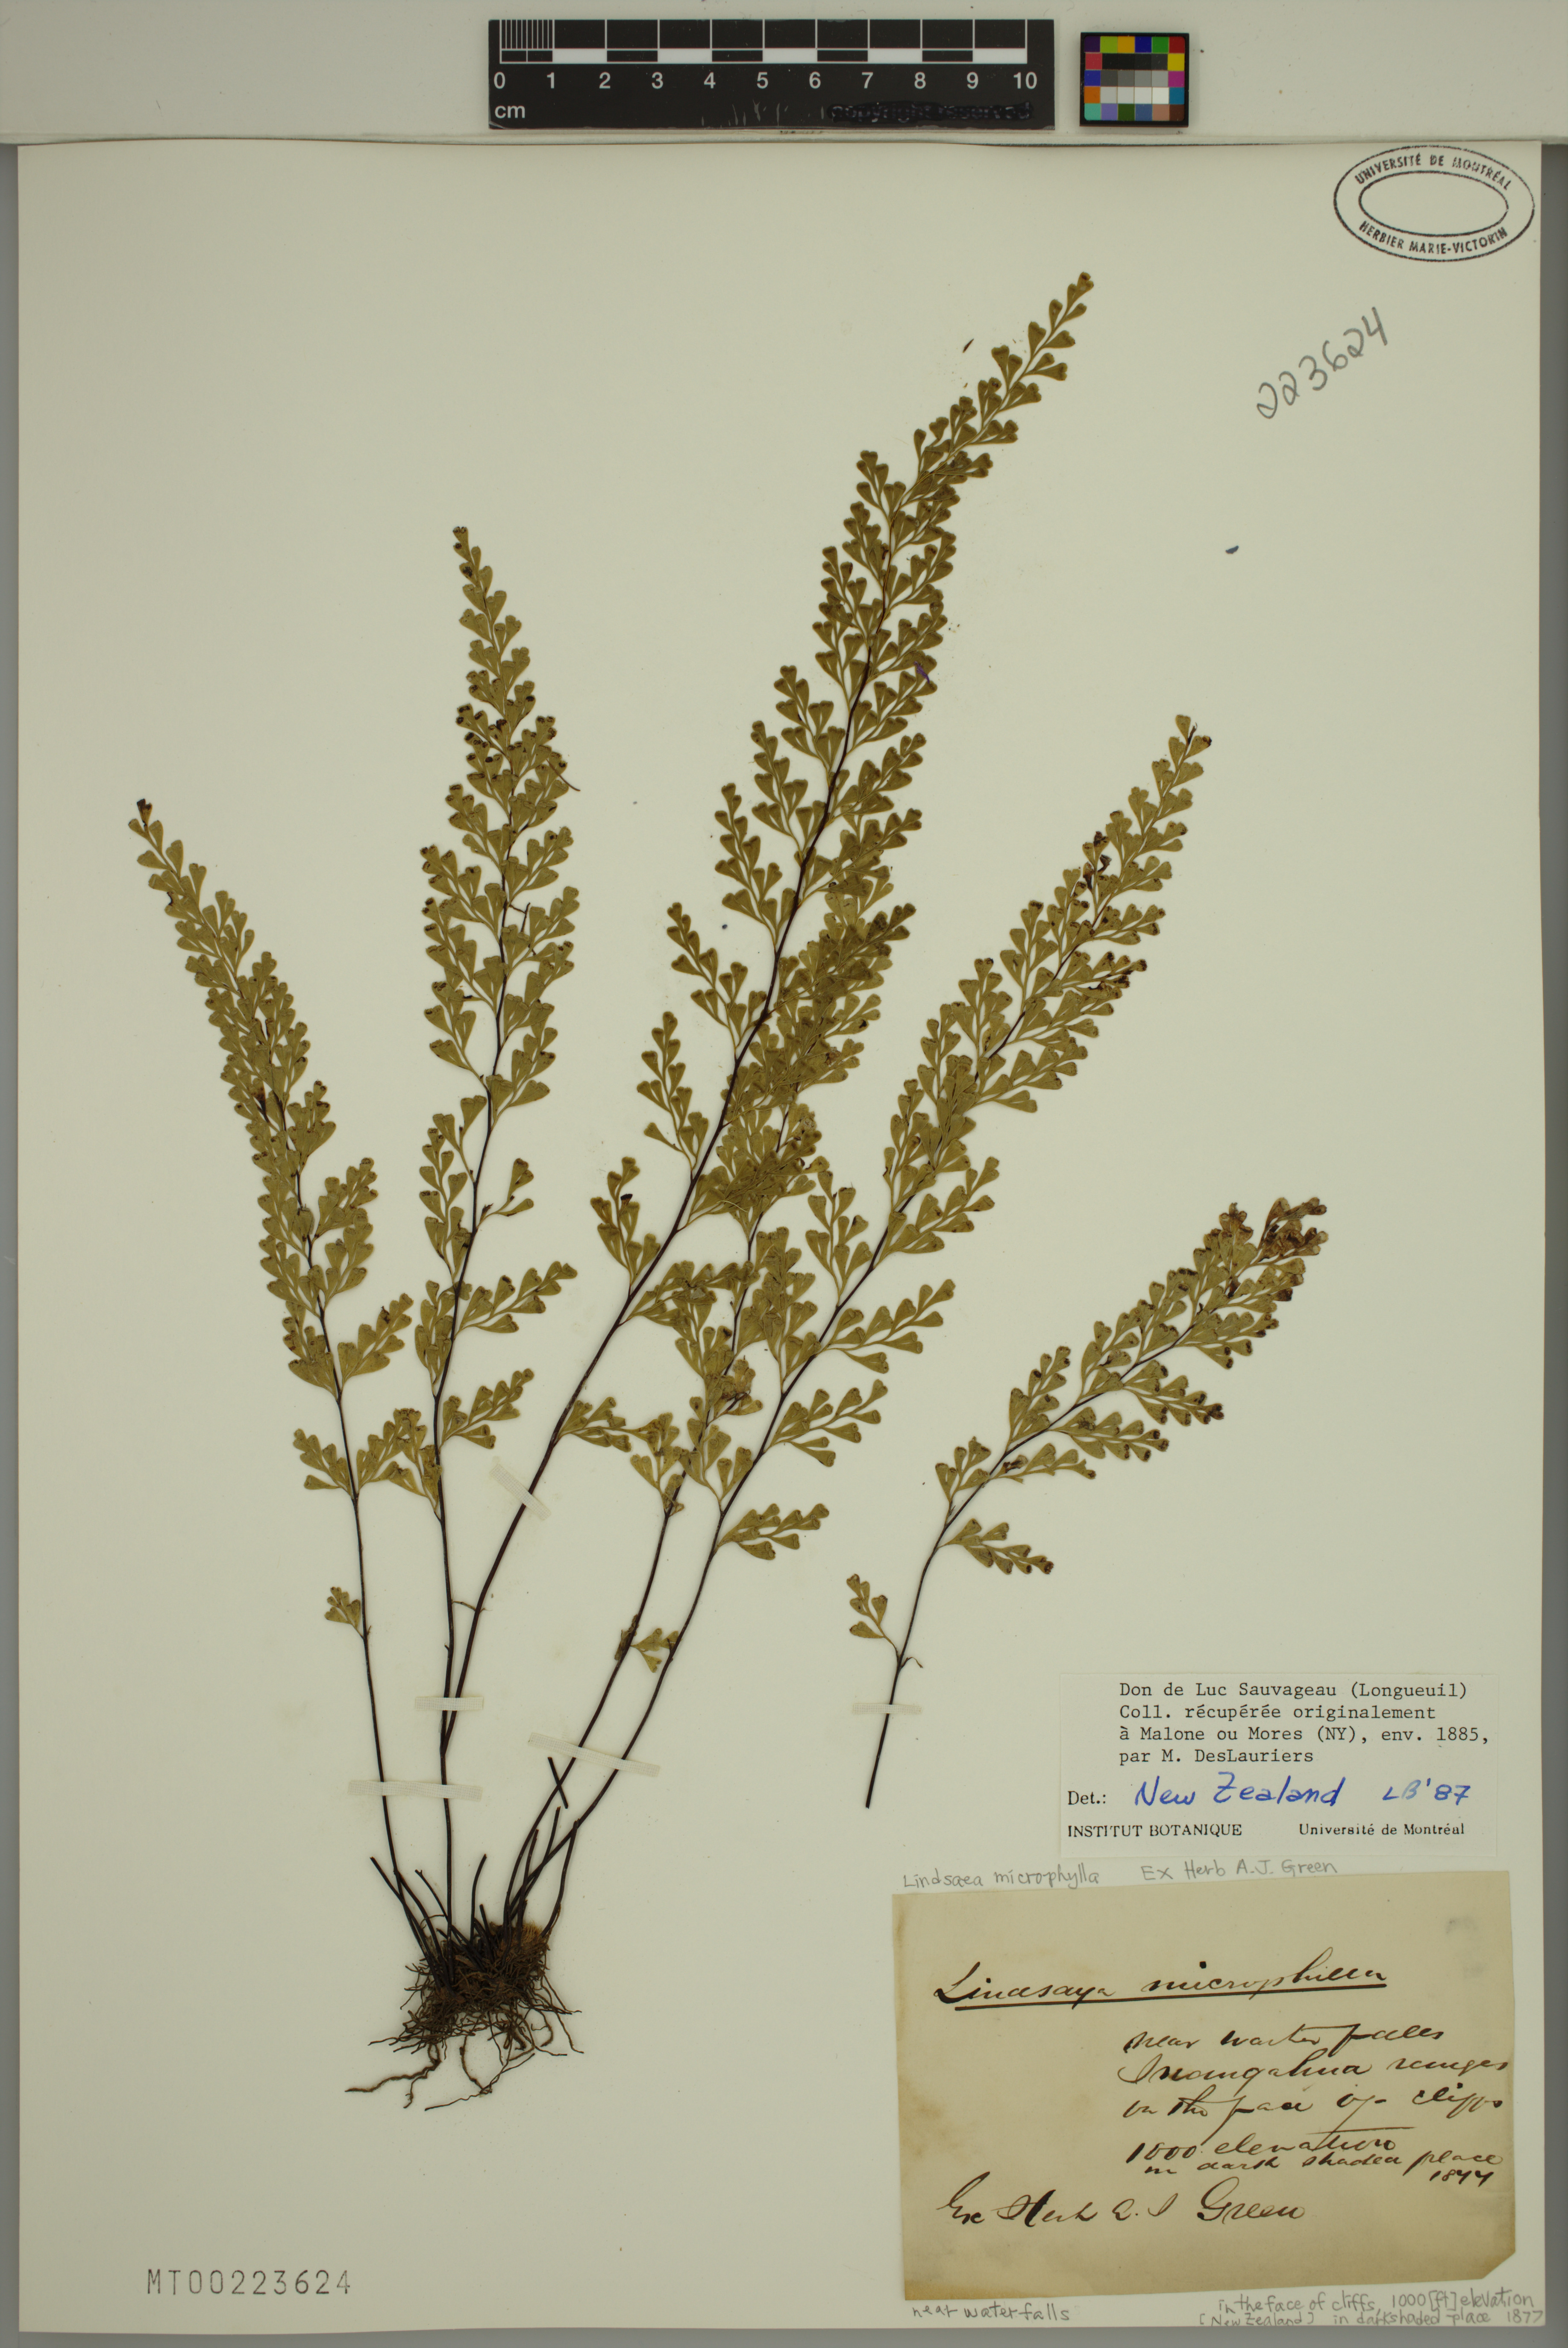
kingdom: Plantae
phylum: Tracheophyta
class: Polypodiopsida
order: Polypodiales
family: Lindsaeaceae
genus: Lindsaea
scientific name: Lindsaea microphylla
